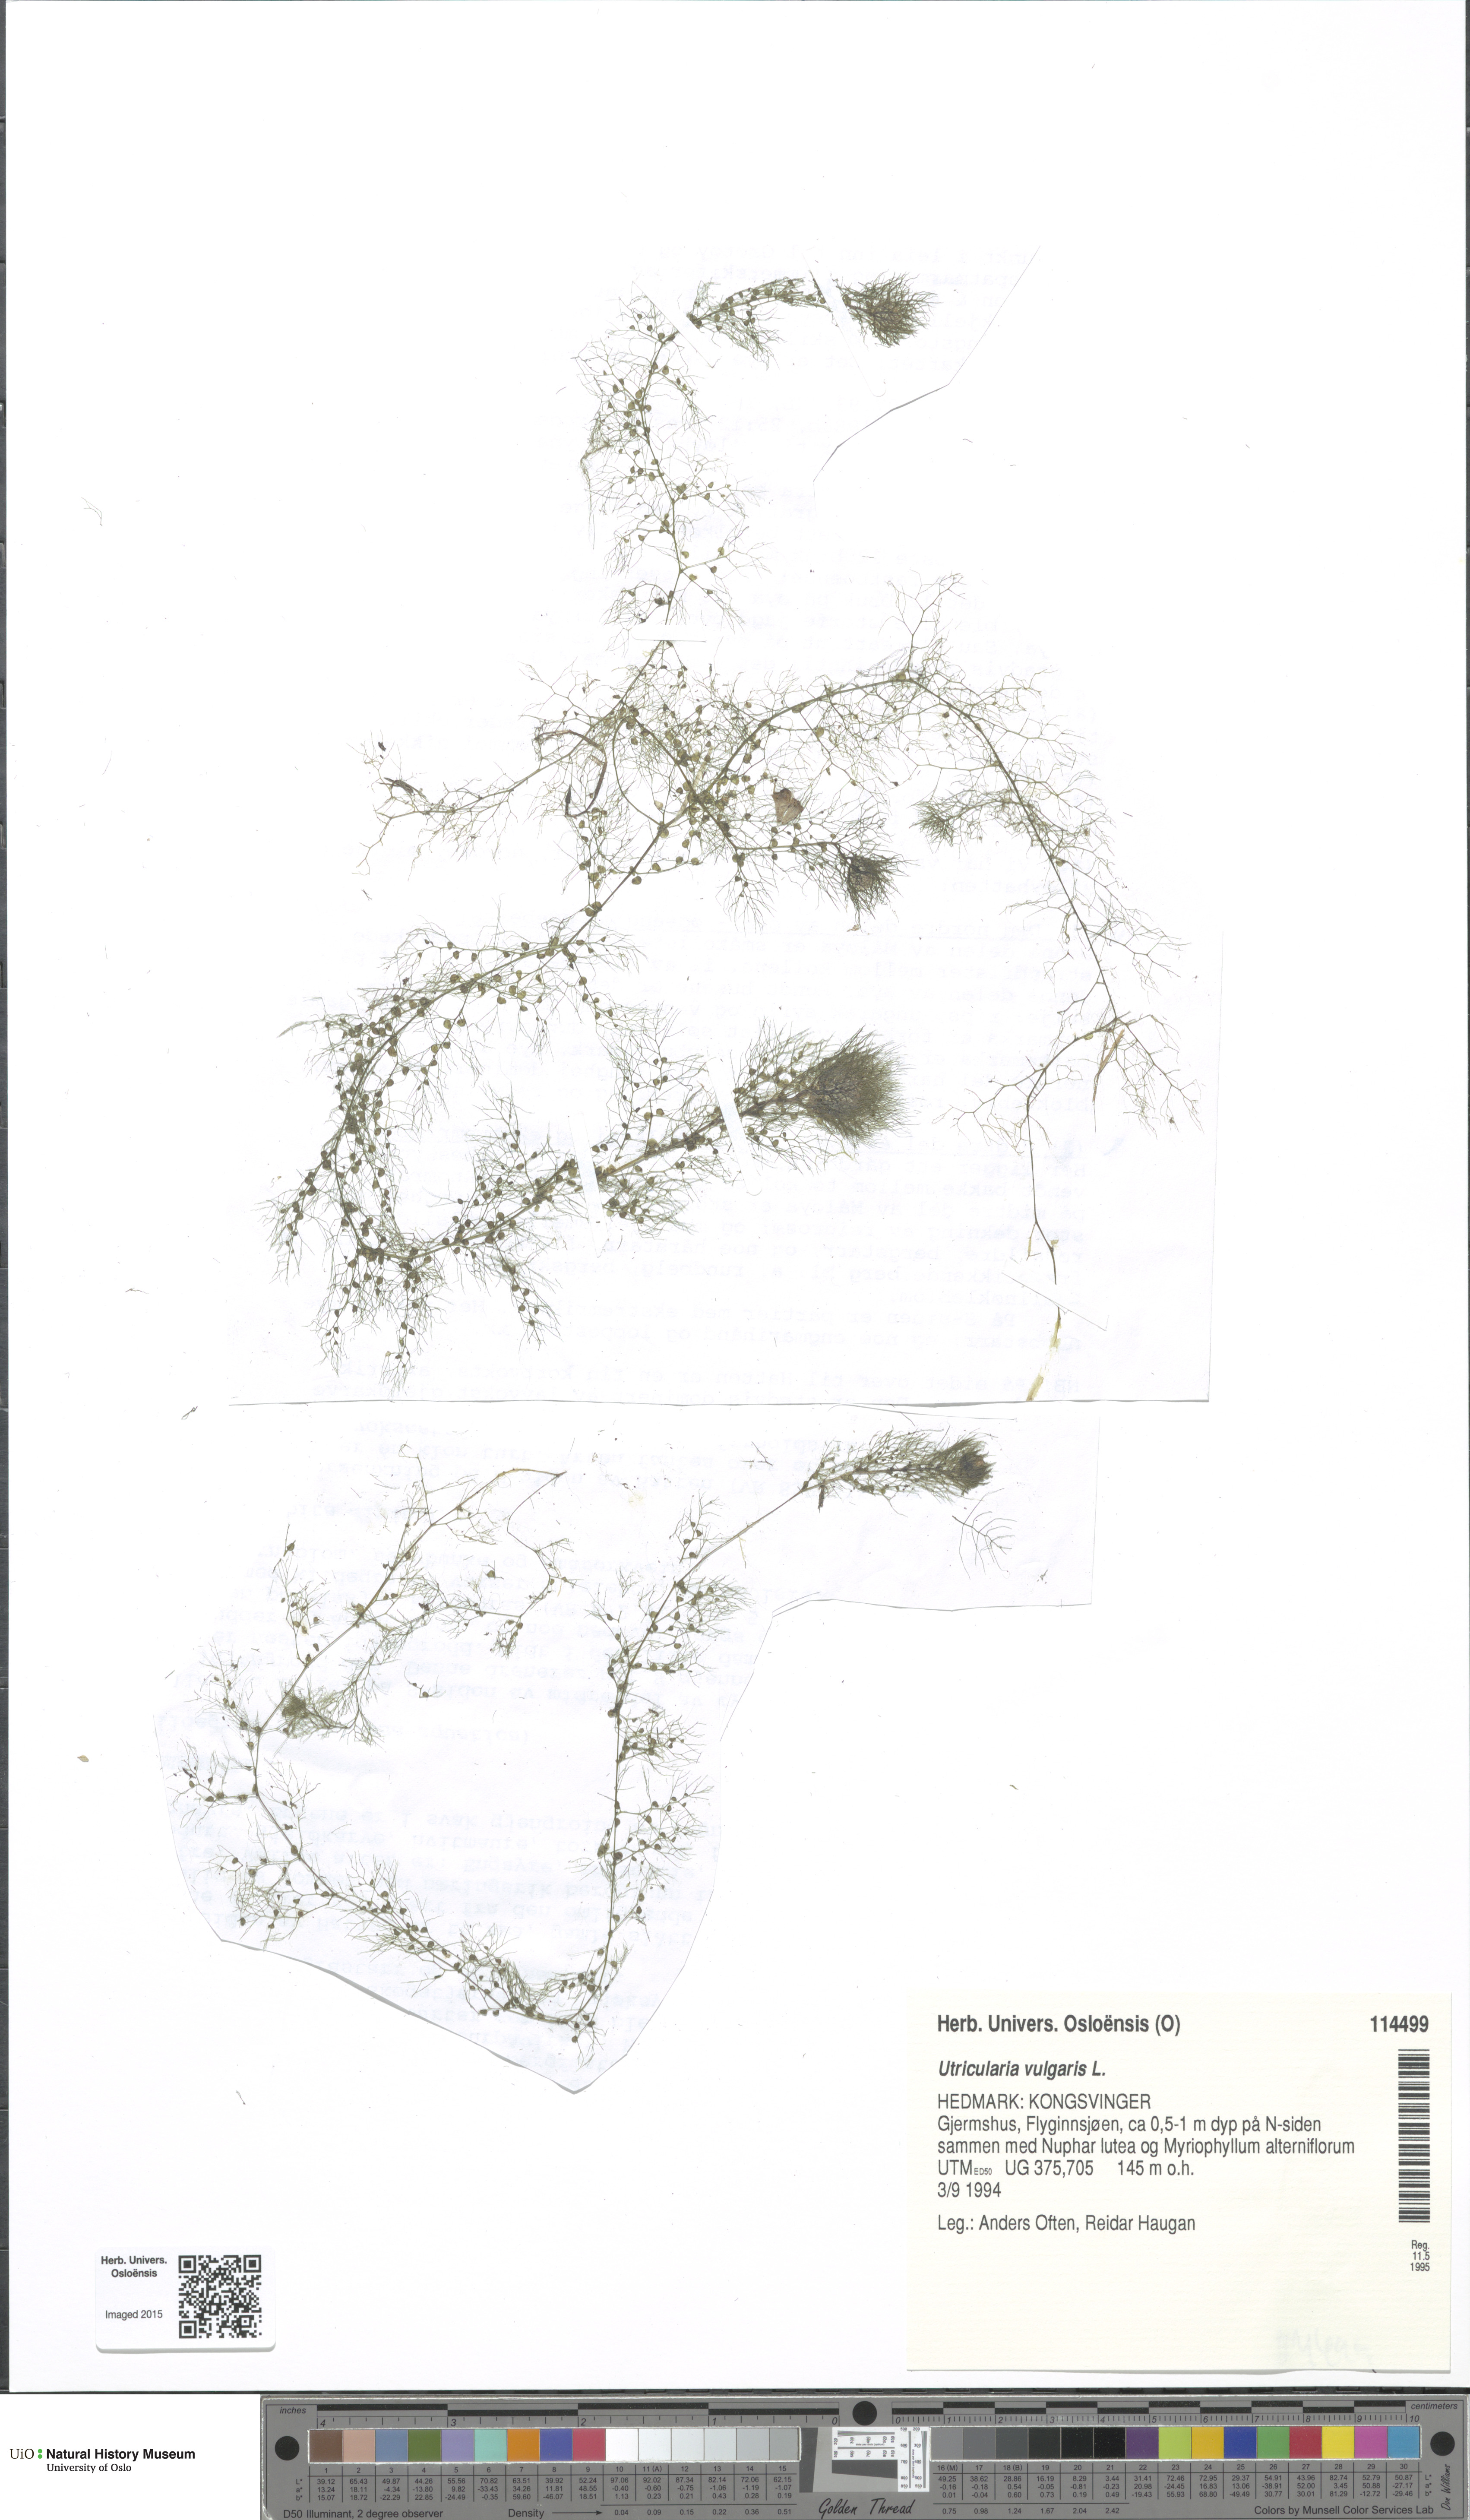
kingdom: Plantae
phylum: Tracheophyta
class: Magnoliopsida
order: Lamiales
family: Lentibulariaceae
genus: Utricularia
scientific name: Utricularia vulgaris
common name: Greater bladderwort
